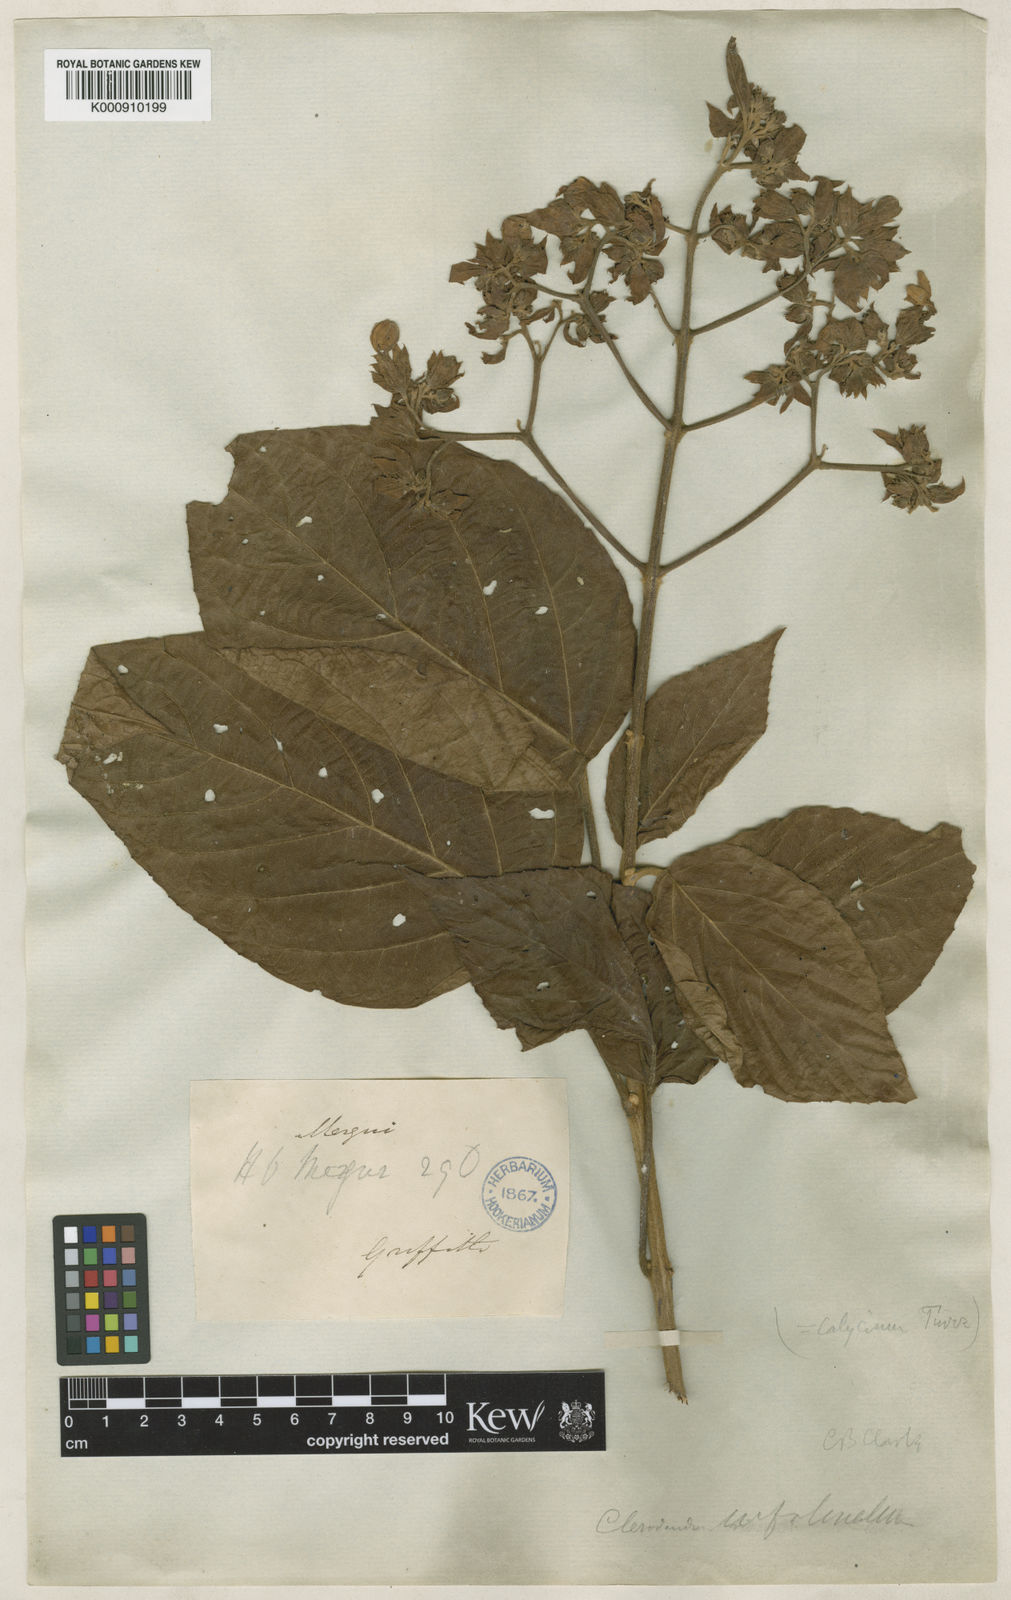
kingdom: Plantae
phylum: Tracheophyta
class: Magnoliopsida
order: Lamiales
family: Lamiaceae
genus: Clerodendrum
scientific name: Clerodendrum villosum
